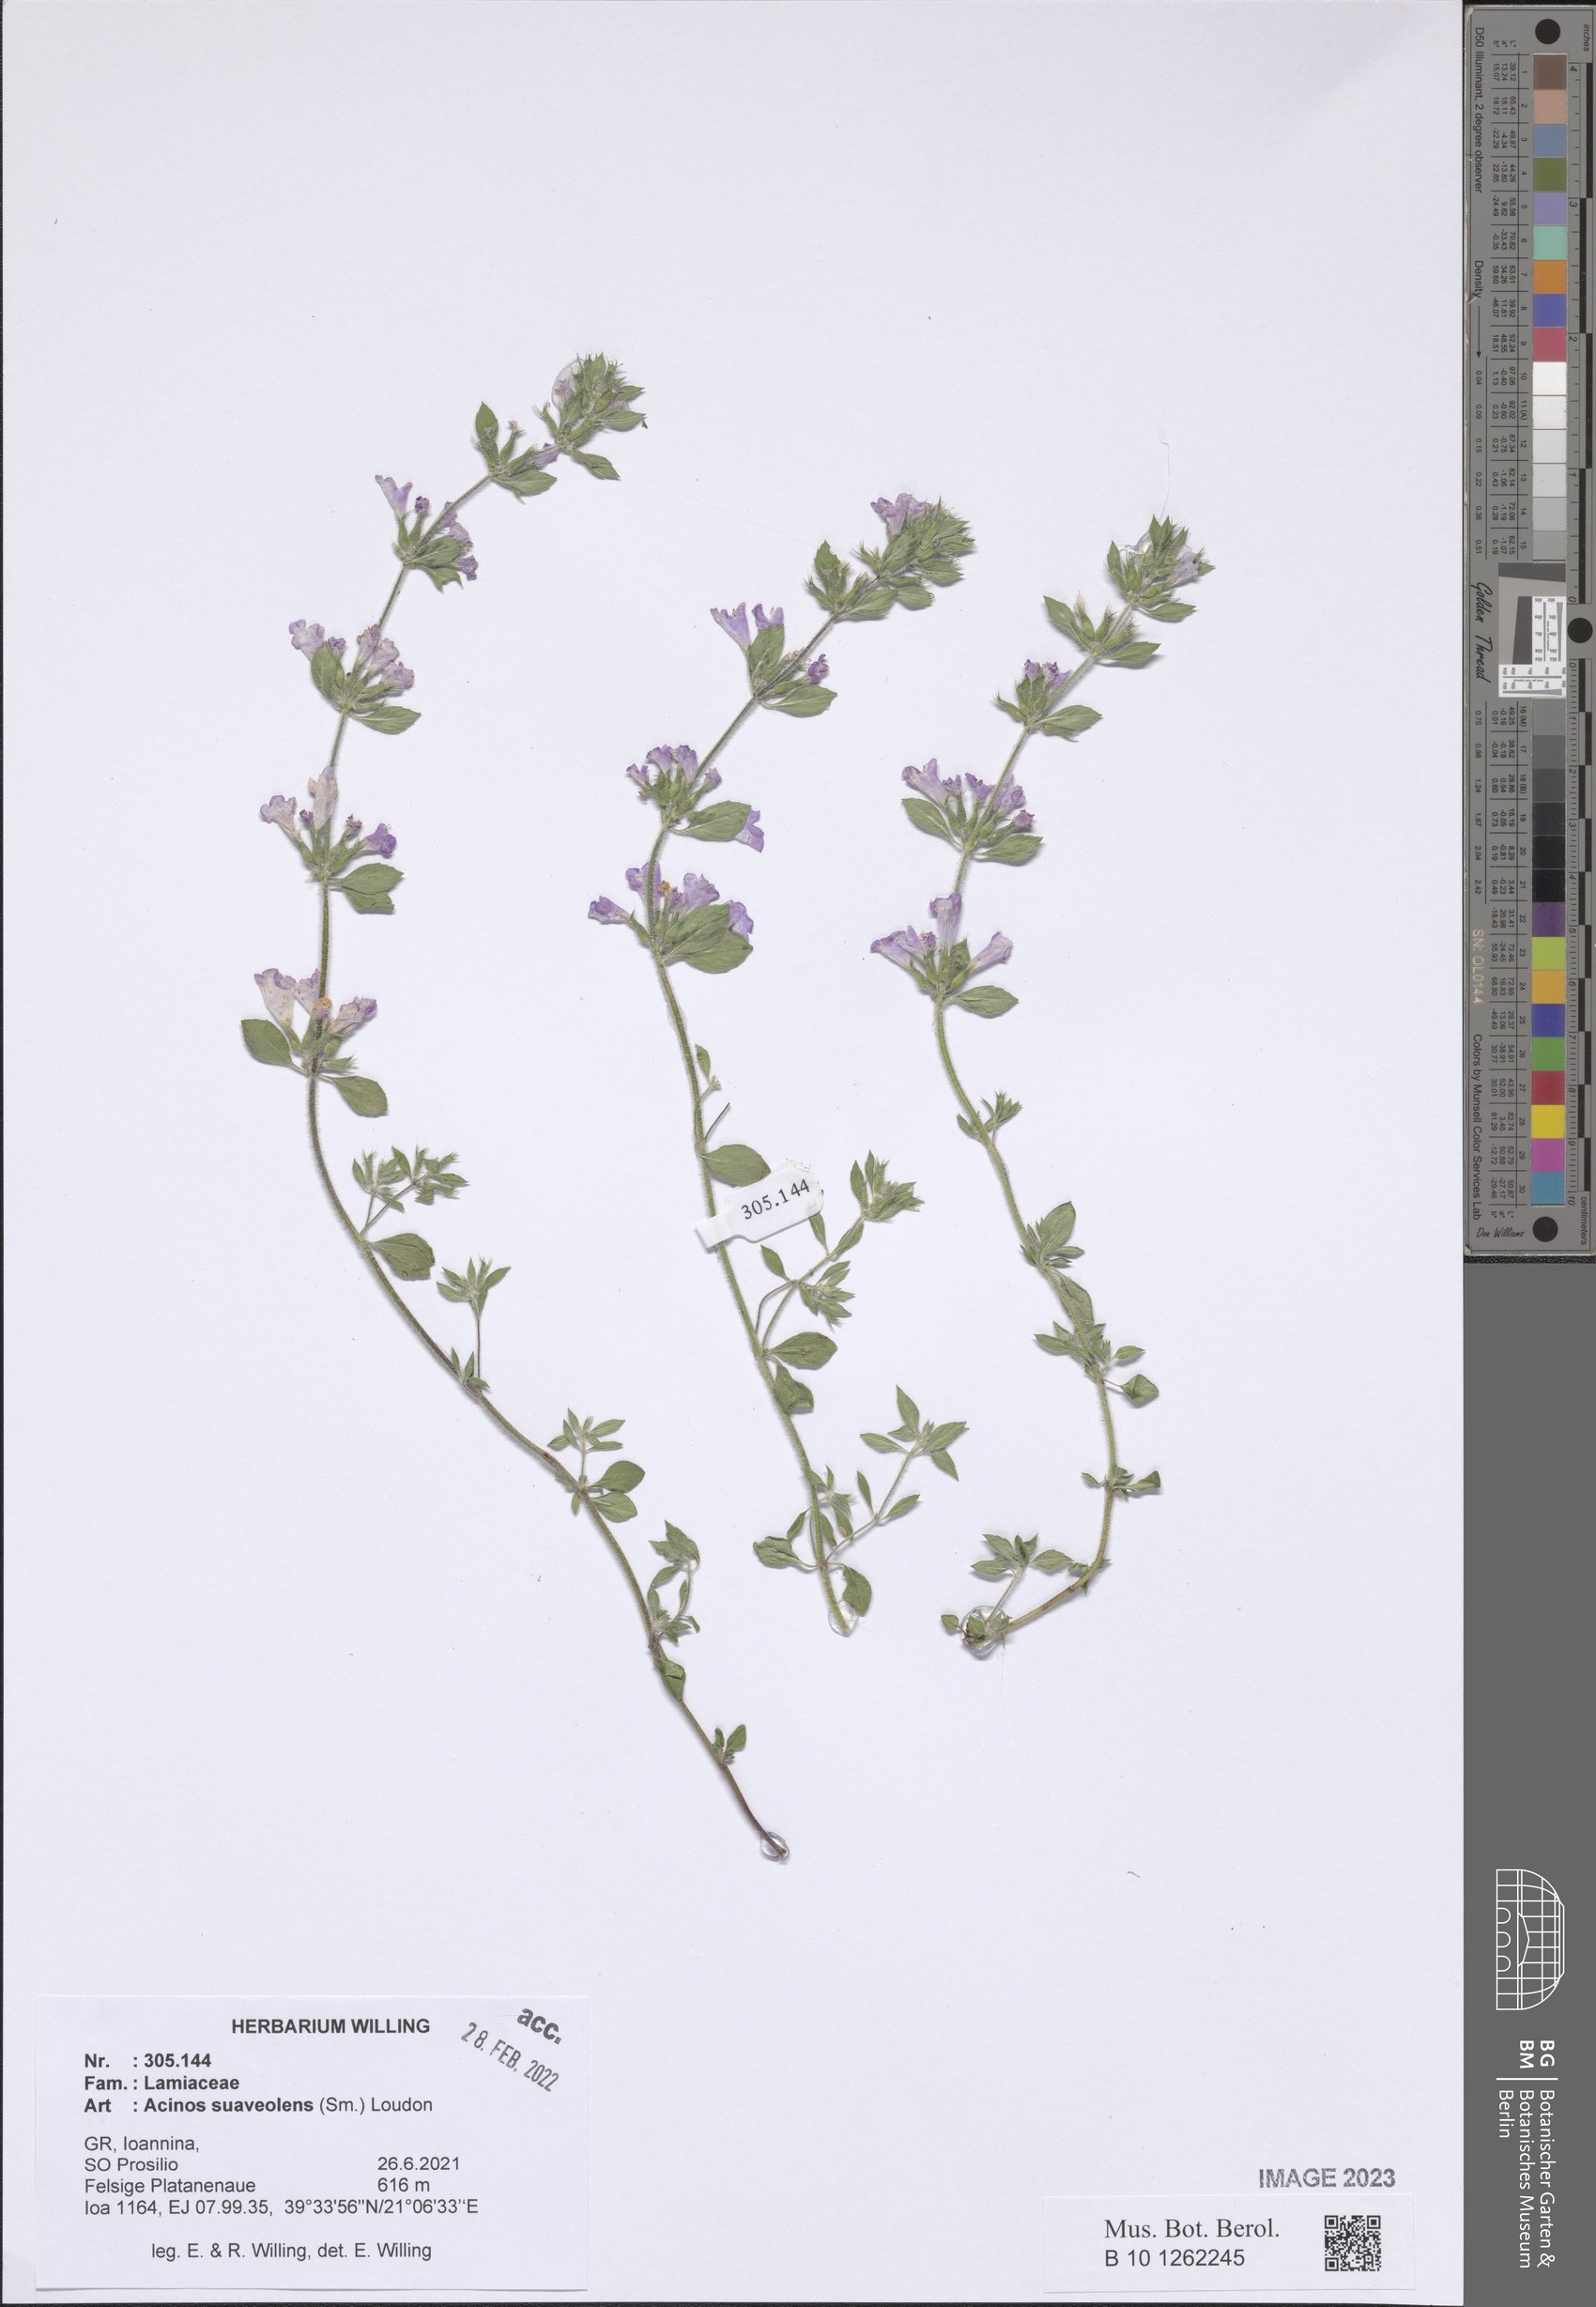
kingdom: Plantae
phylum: Tracheophyta
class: Magnoliopsida
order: Lamiales
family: Lamiaceae
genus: Clinopodium
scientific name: Clinopodium suaveolens
